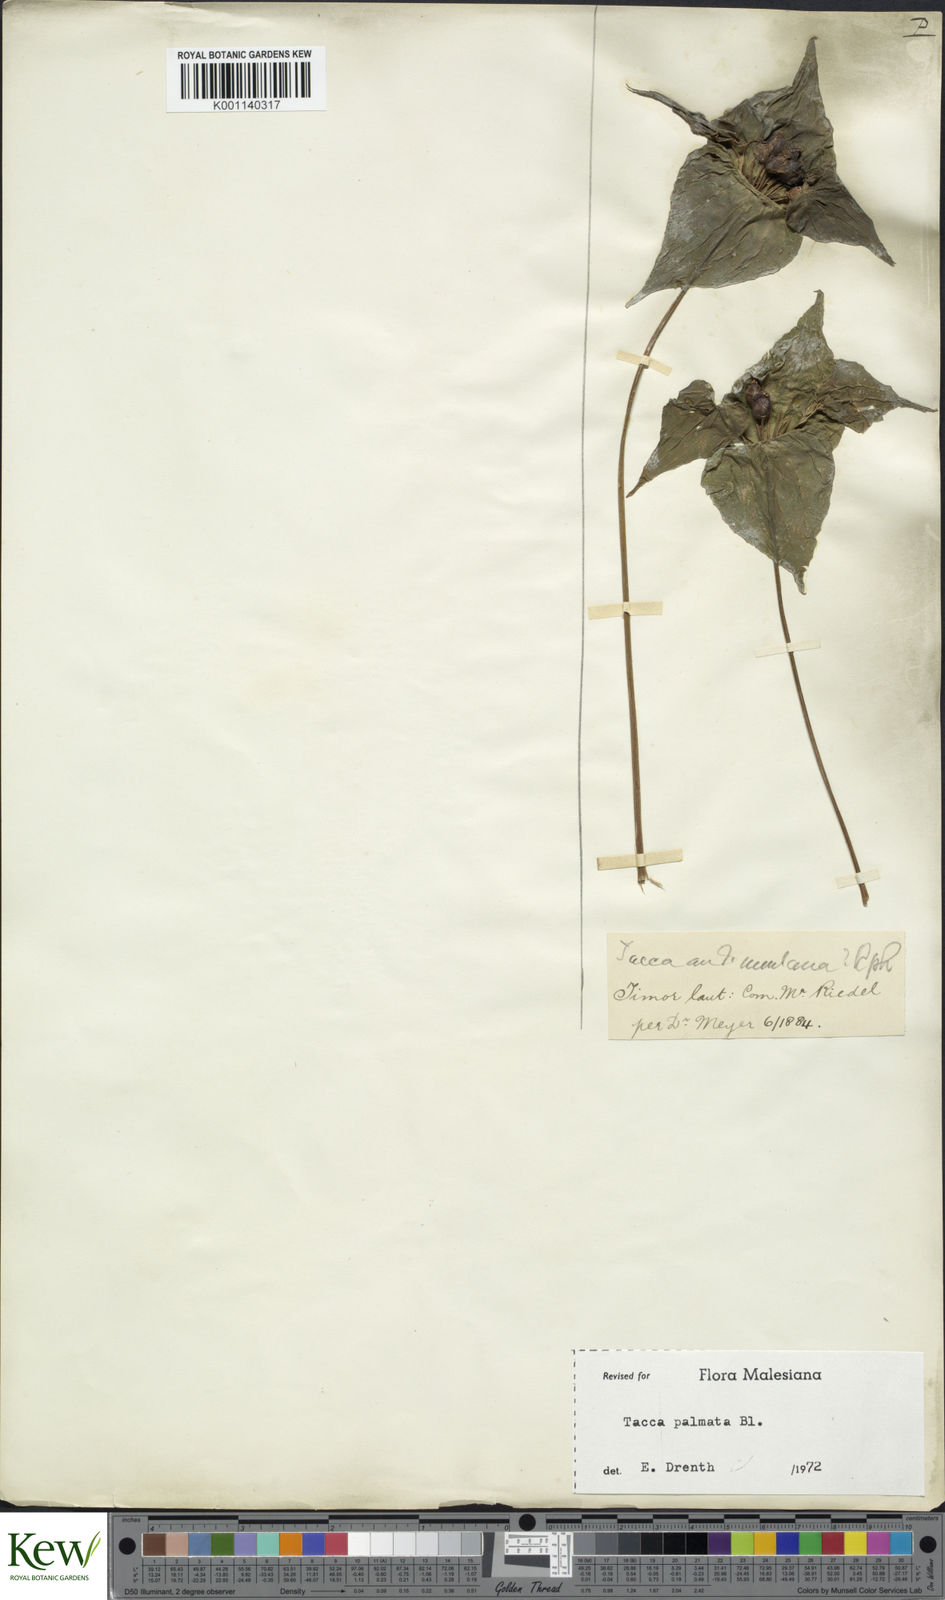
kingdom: Plantae
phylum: Tracheophyta
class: Liliopsida
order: Dioscoreales
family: Dioscoreaceae
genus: Tacca
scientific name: Tacca palmata
